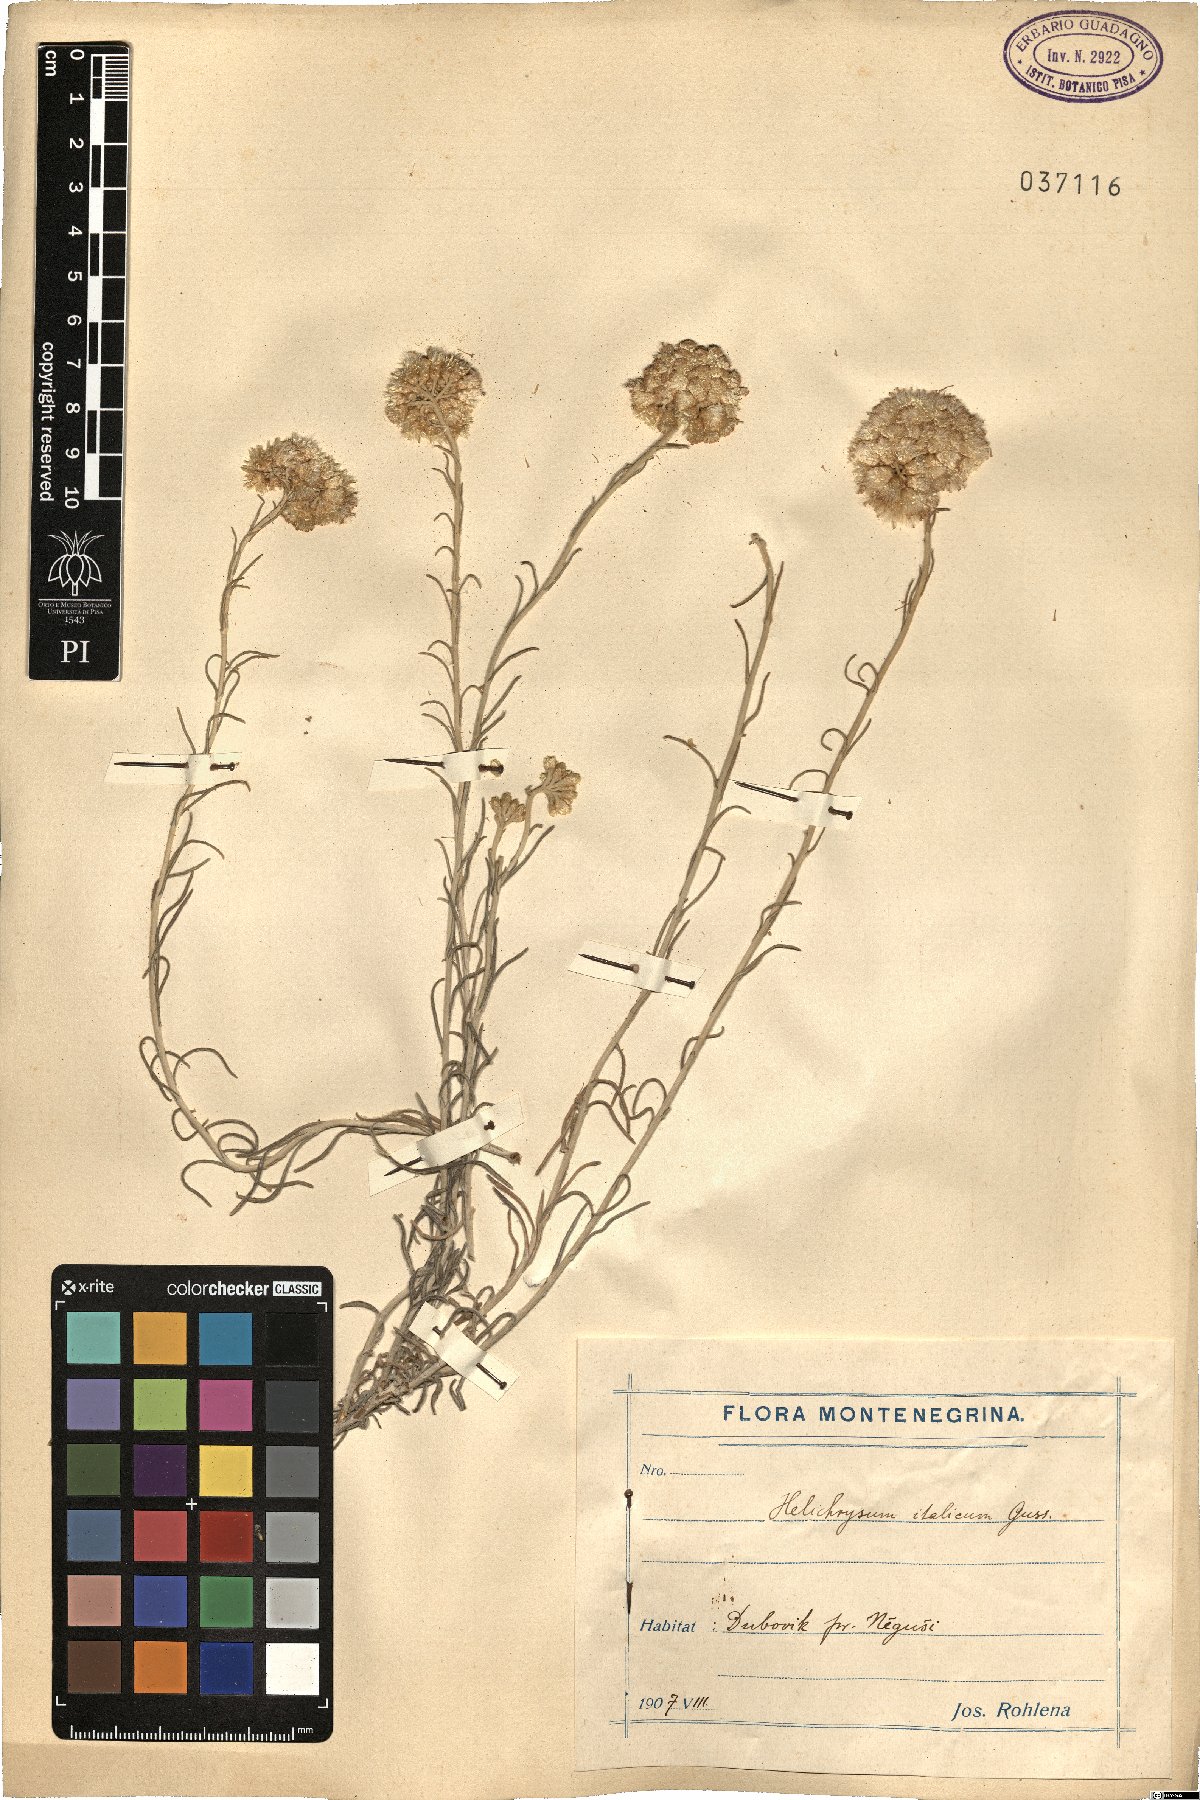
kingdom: Plantae
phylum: Tracheophyta
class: Magnoliopsida
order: Asterales
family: Asteraceae
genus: Helichrysum
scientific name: Helichrysum italicum
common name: Curryplant
